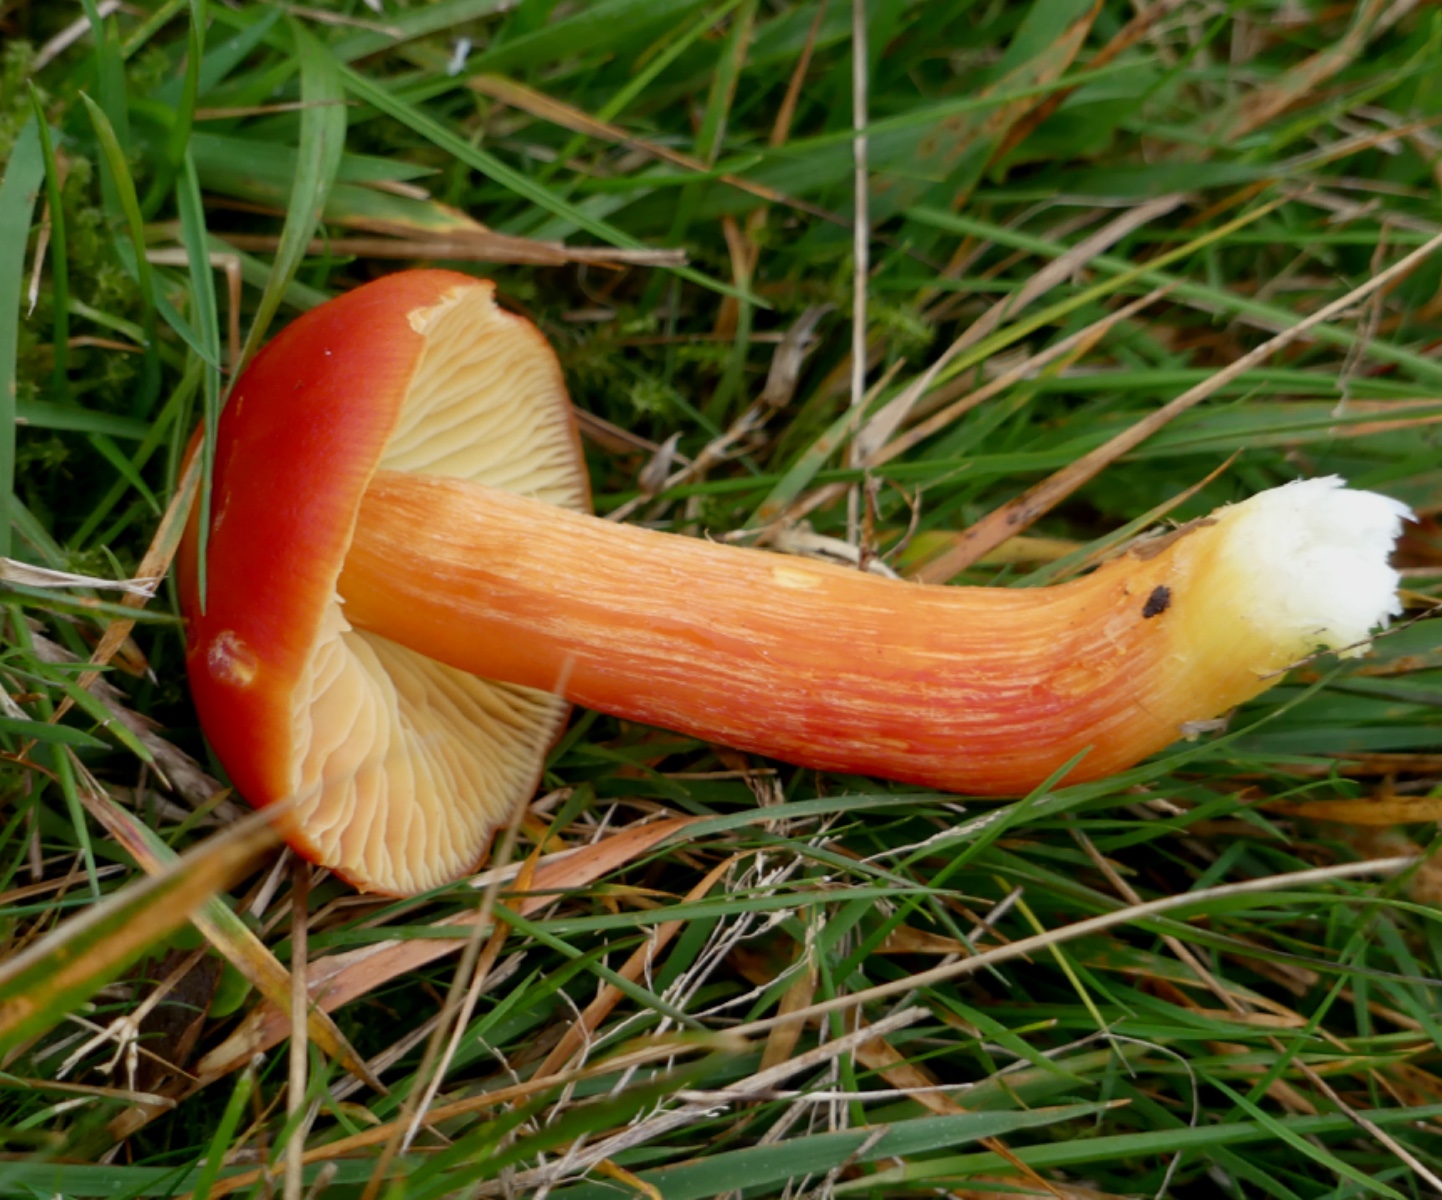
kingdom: Fungi
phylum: Basidiomycota
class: Agaricomycetes
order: Agaricales
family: Hygrophoraceae
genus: Hygrocybe
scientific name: Hygrocybe punicea
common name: skarlagen-vokshat
